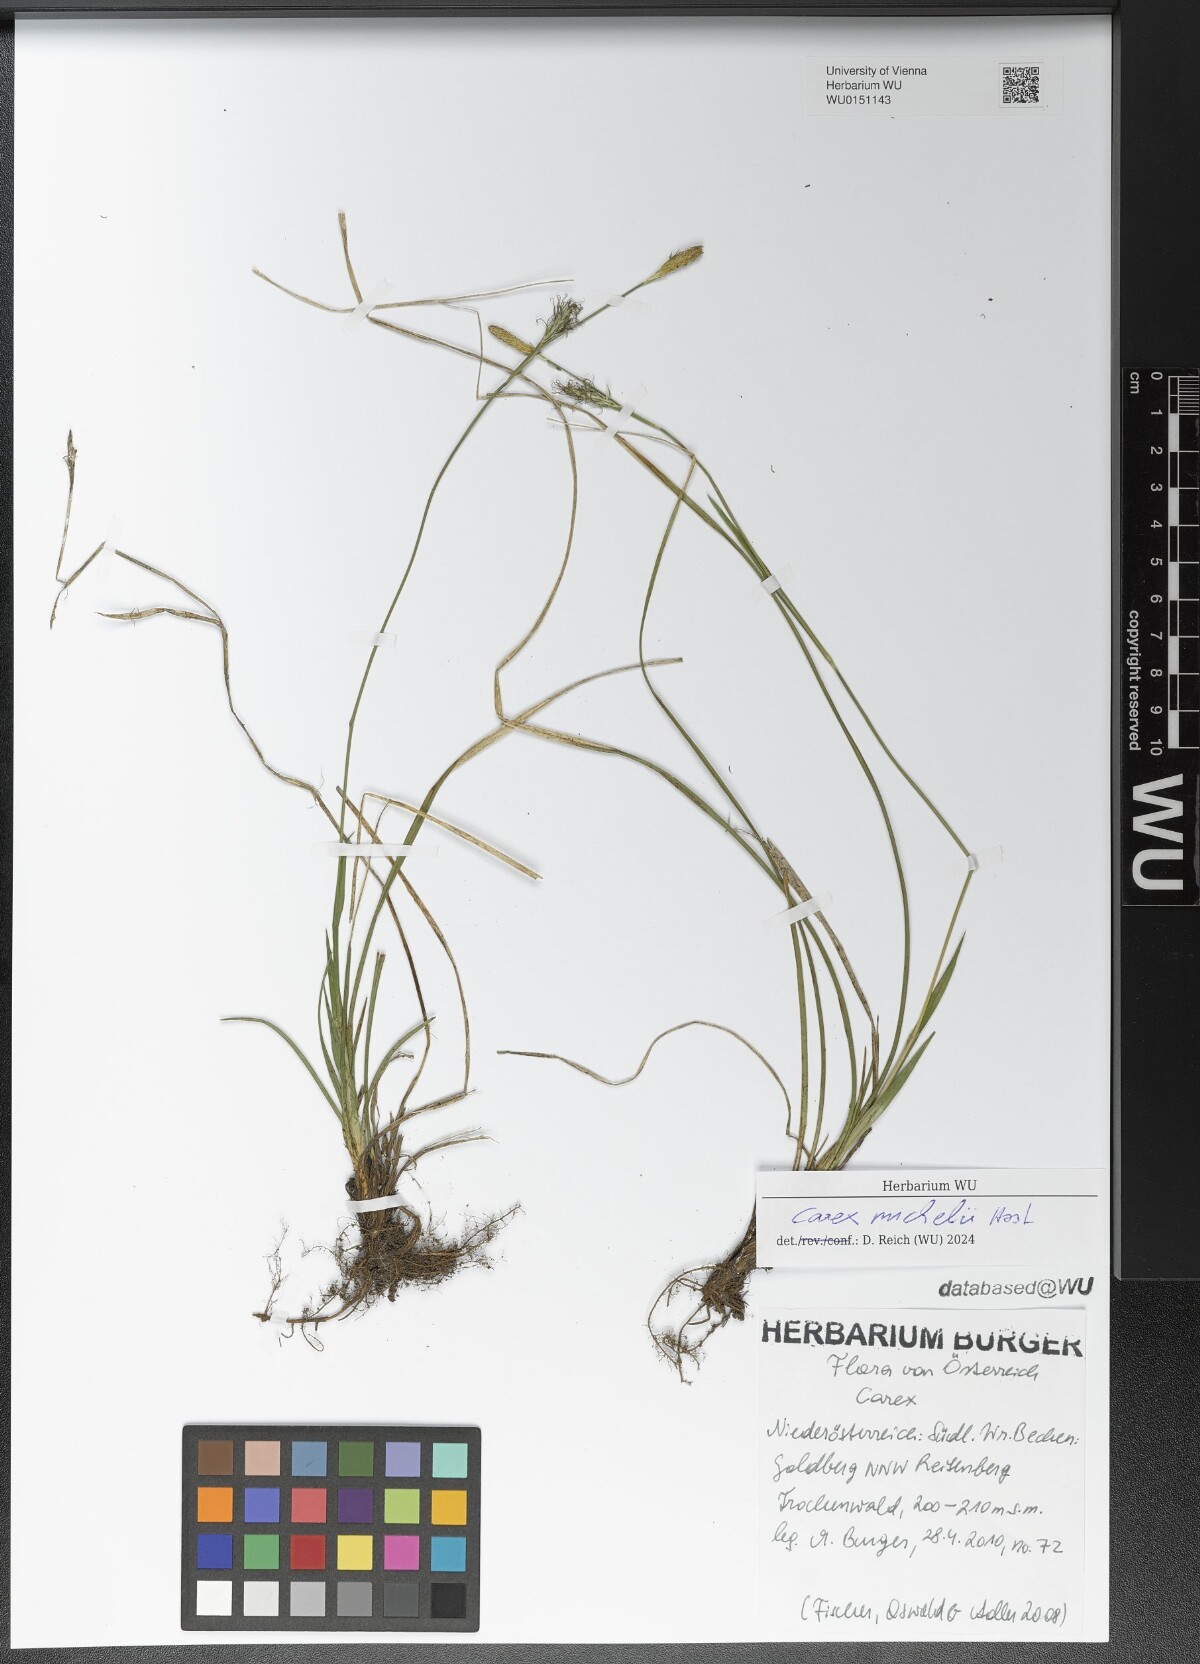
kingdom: Plantae
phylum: Tracheophyta
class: Liliopsida
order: Poales
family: Cyperaceae
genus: Carex
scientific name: Carex michelii
